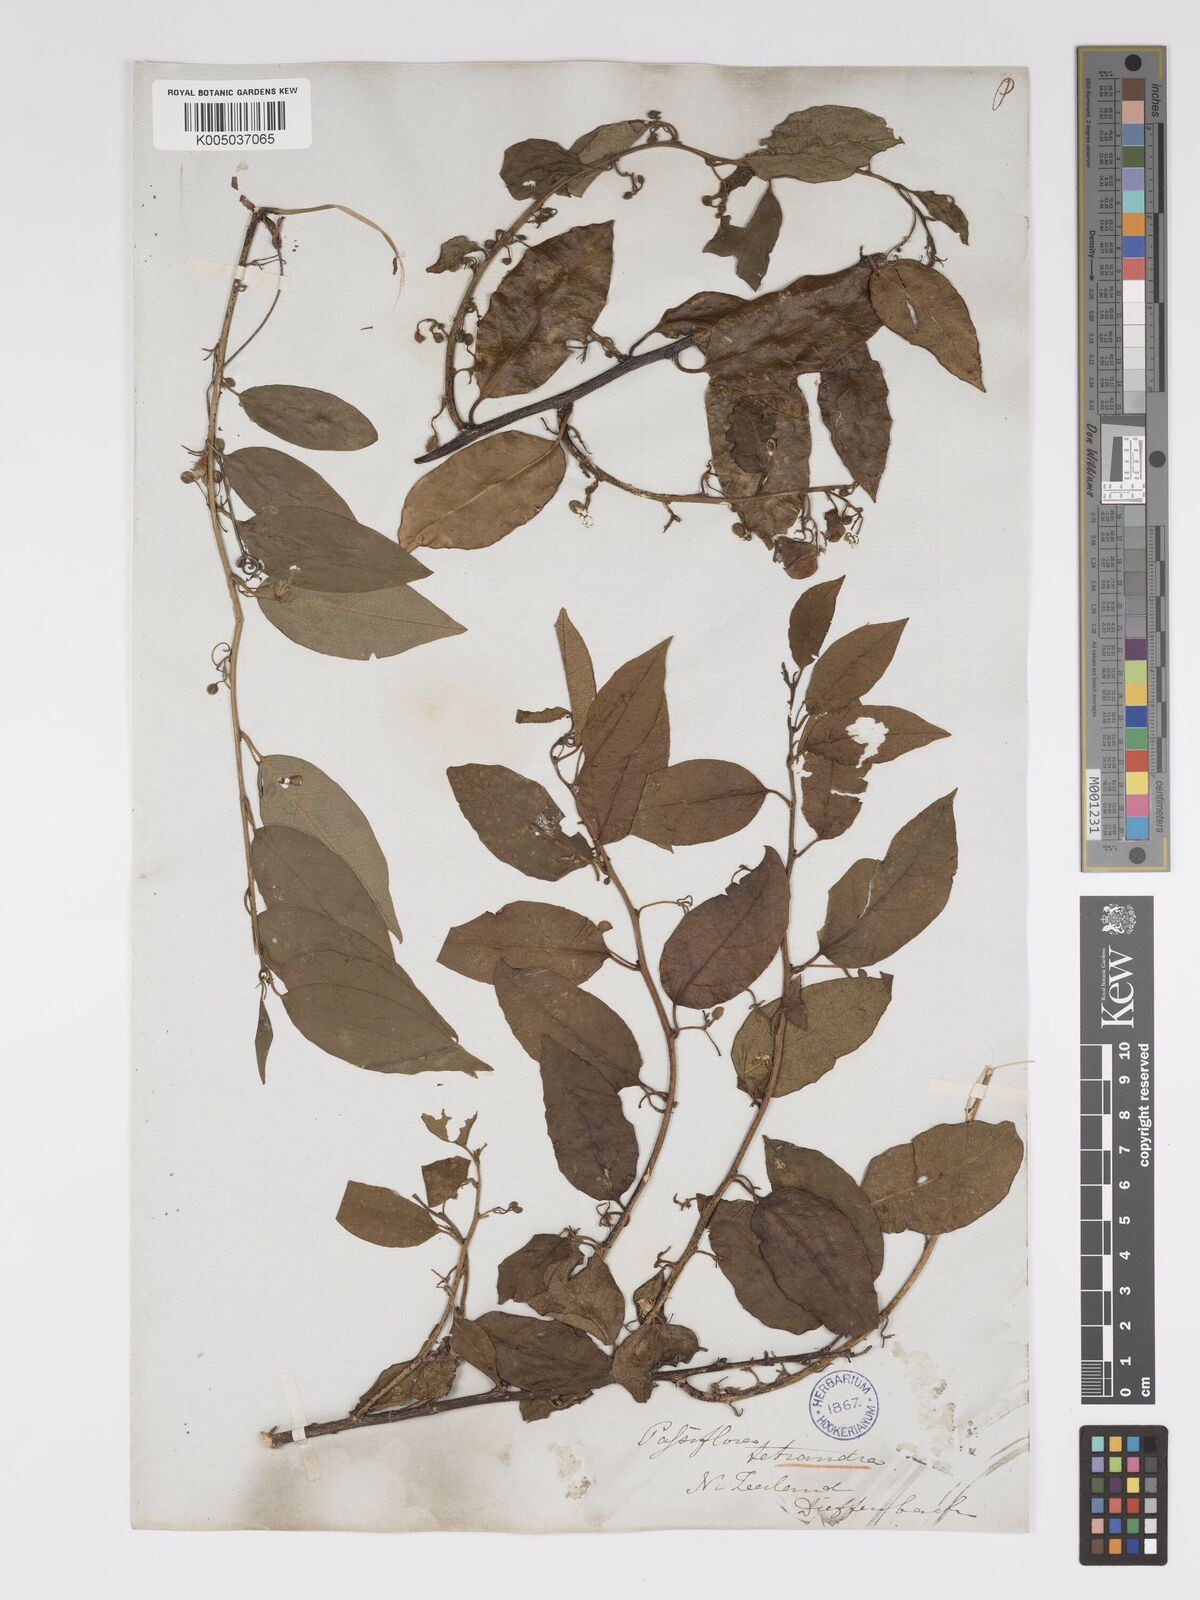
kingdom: Plantae
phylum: Tracheophyta
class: Magnoliopsida
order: Malpighiales
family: Passifloraceae
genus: Passiflora
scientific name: Passiflora tetrandra
